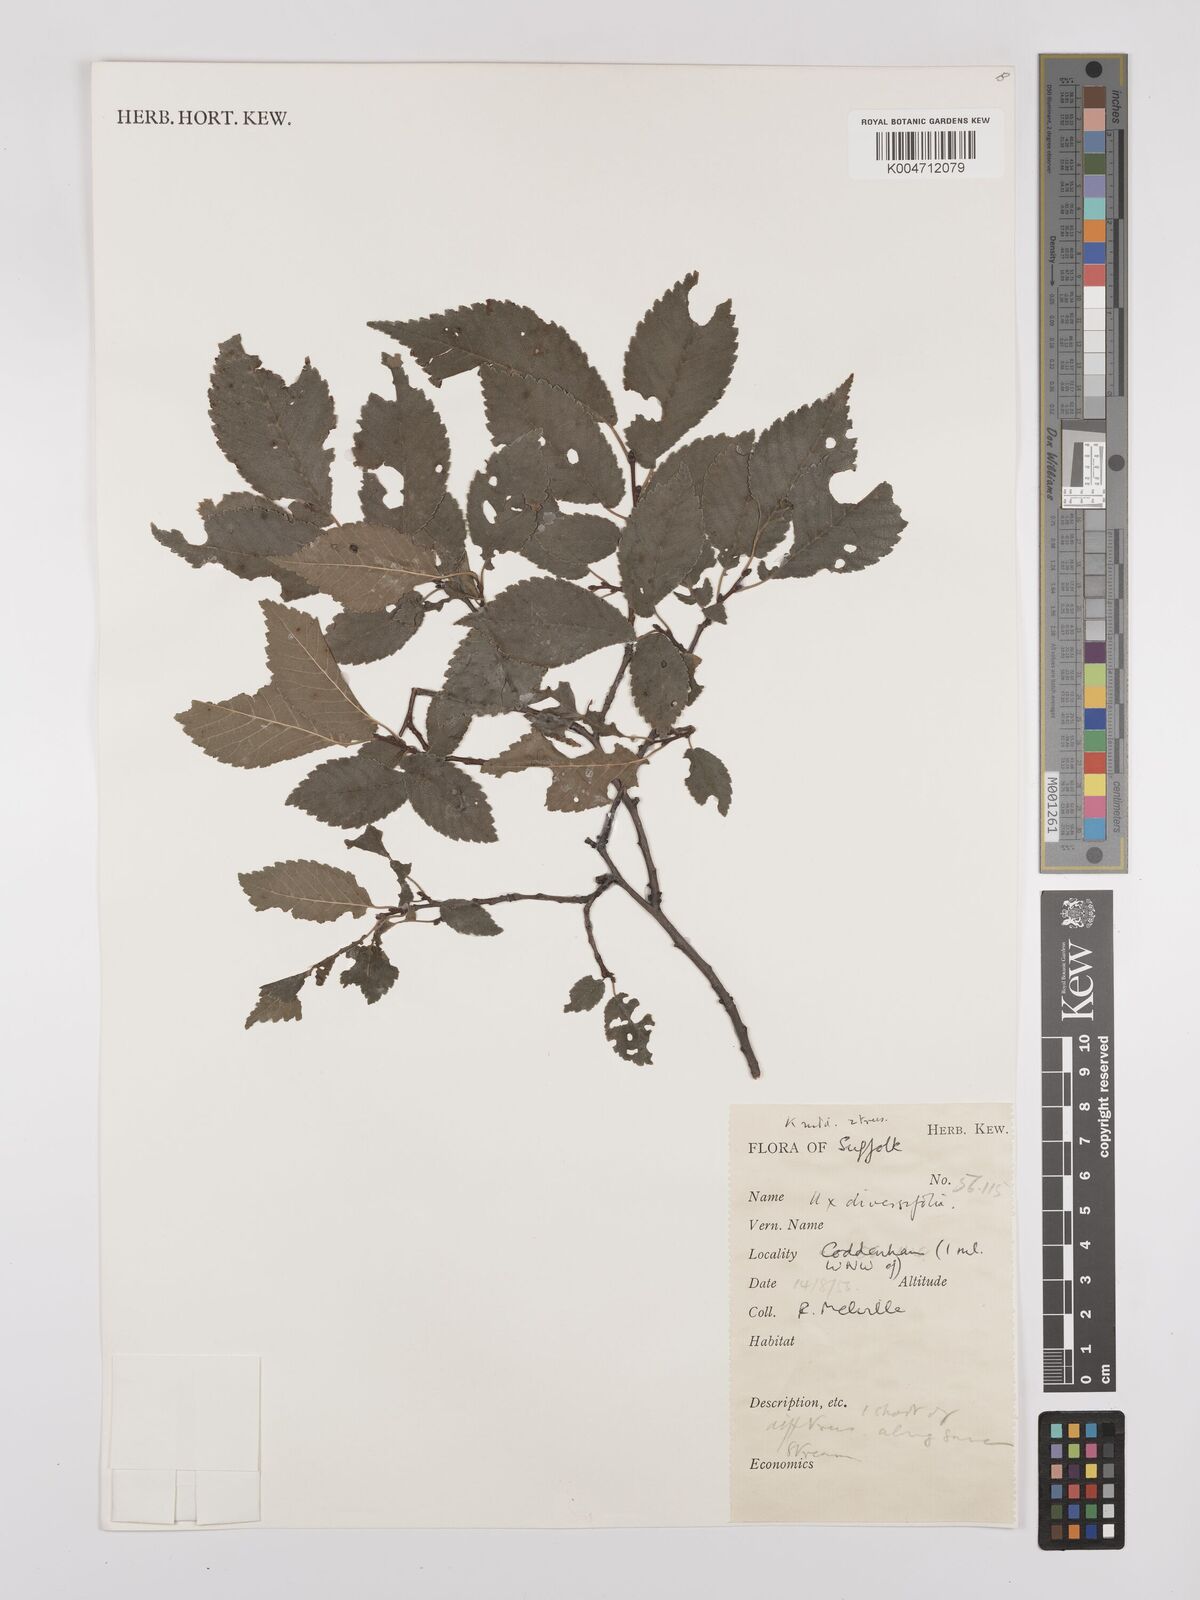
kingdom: Plantae
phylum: Tracheophyta
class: Magnoliopsida
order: Rosales
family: Ulmaceae
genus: Ulmus
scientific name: Ulmus minor
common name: Small-leaved elm
